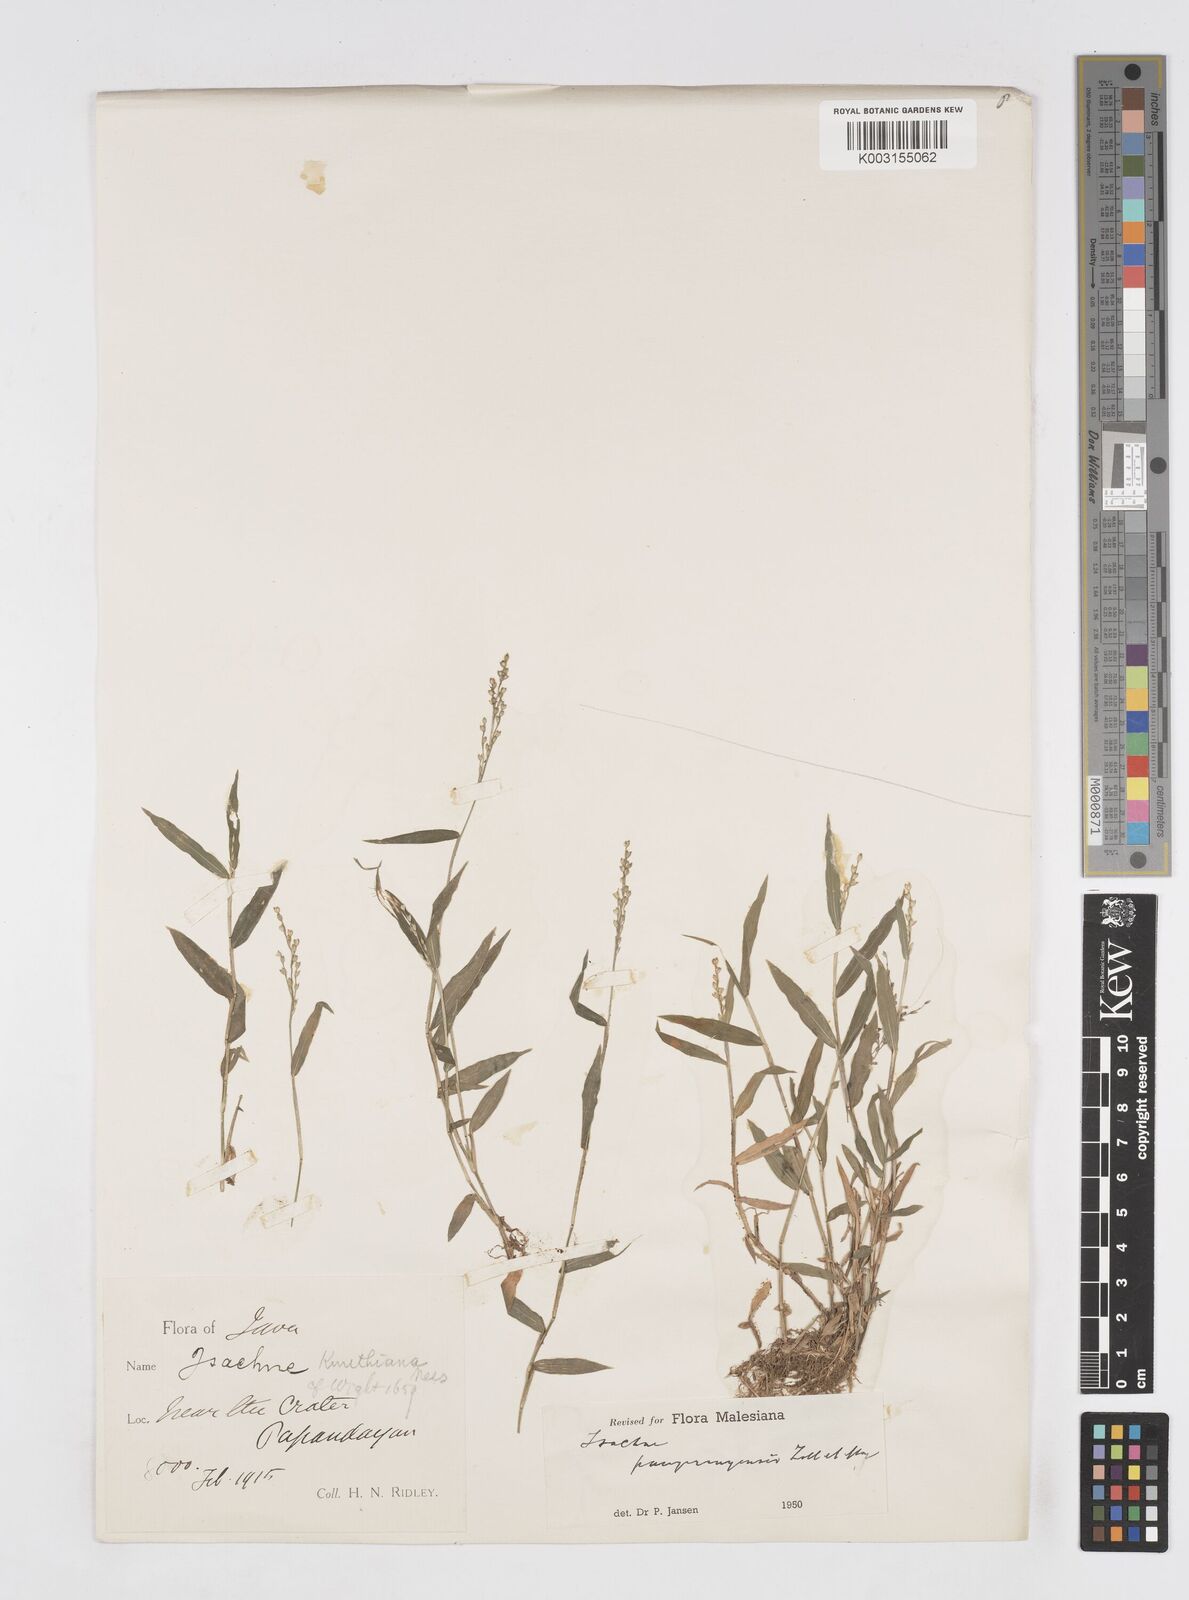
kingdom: Plantae
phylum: Tracheophyta
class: Liliopsida
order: Poales
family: Poaceae
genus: Isachne
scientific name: Isachne pangerangensis
